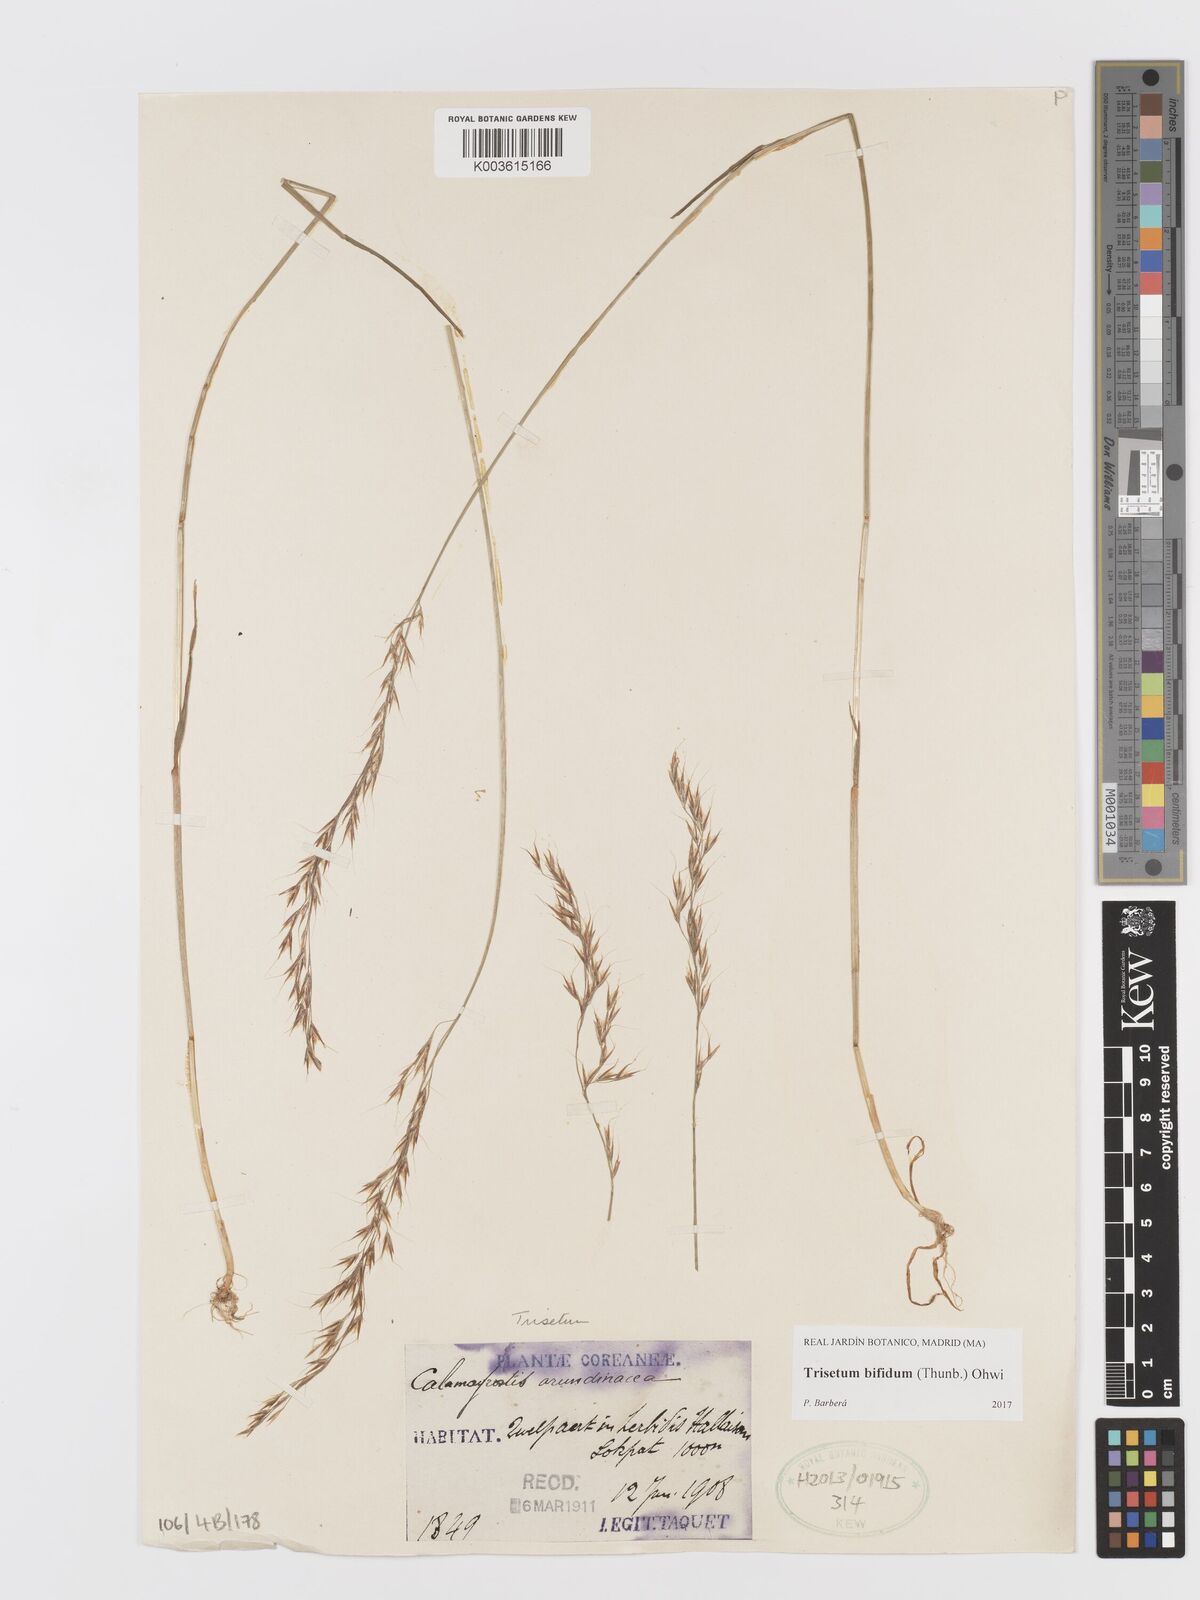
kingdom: Plantae
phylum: Tracheophyta
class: Liliopsida
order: Poales
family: Poaceae
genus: Sibirotrisetum
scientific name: Sibirotrisetum bifidum
